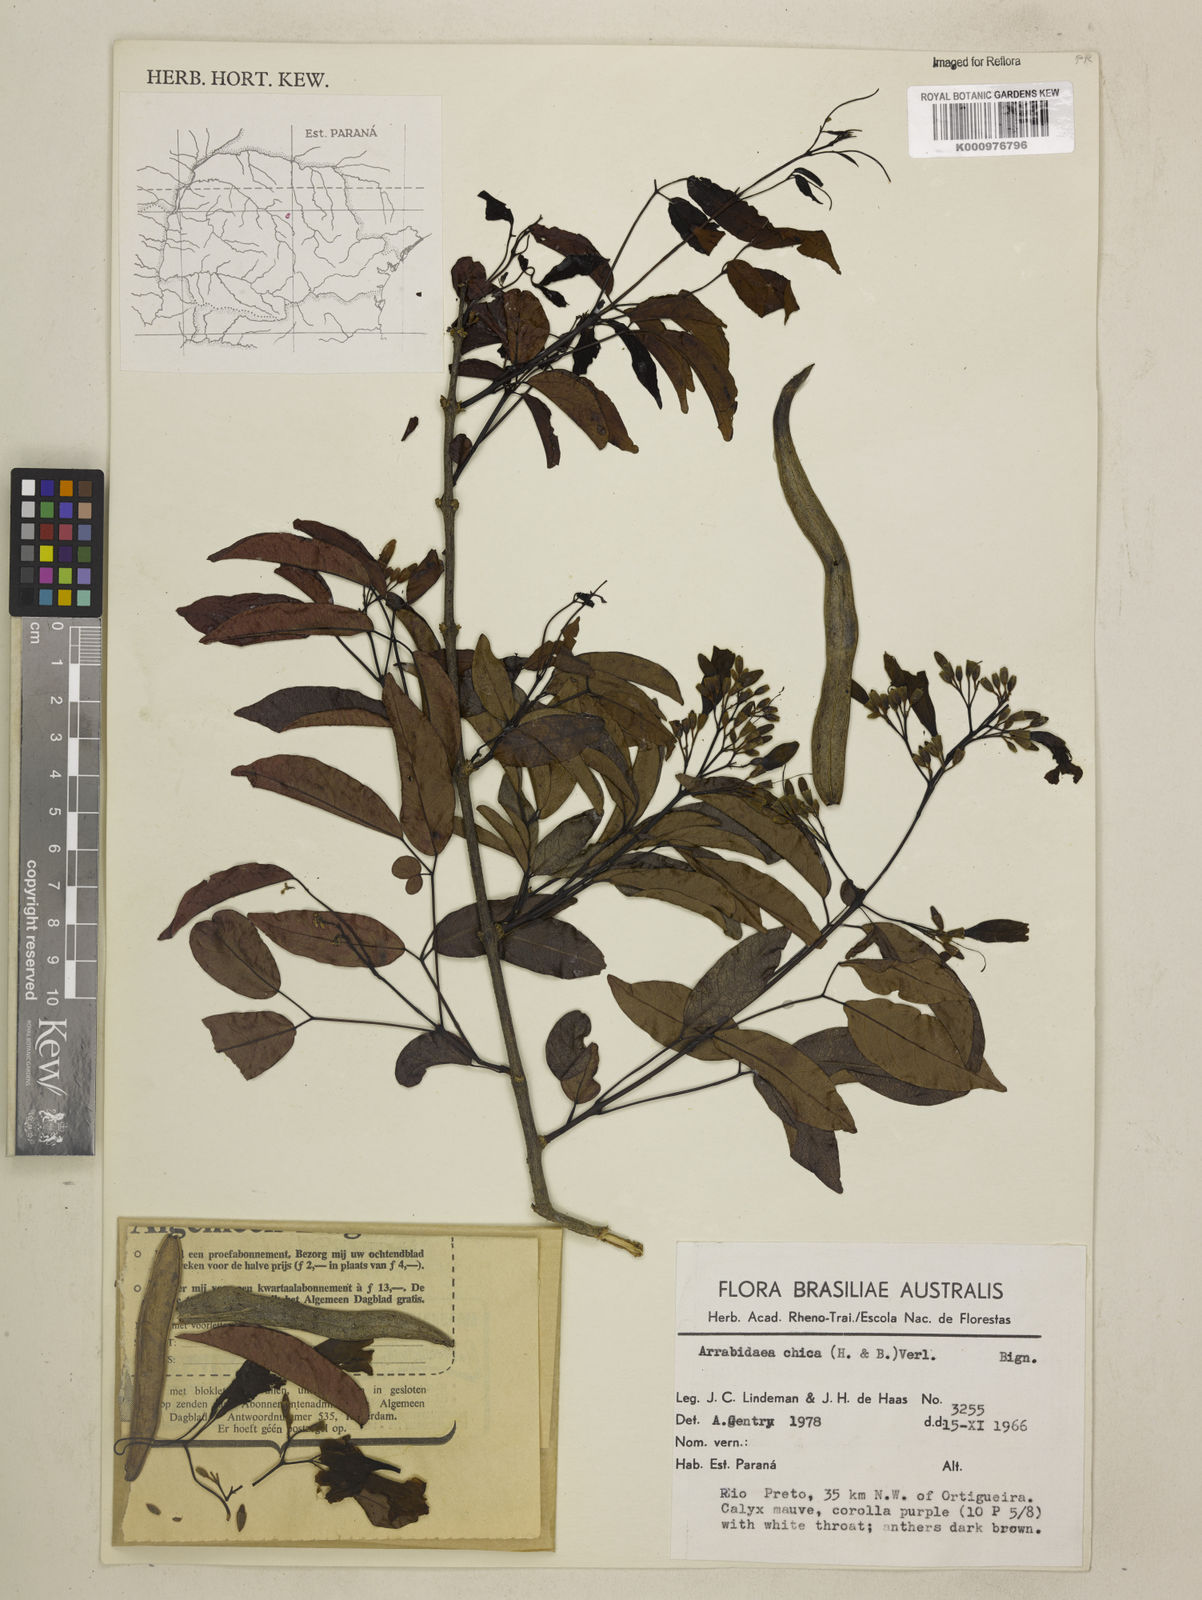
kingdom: Plantae
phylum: Tracheophyta
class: Magnoliopsida
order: Lamiales
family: Bignoniaceae
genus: Fridericia
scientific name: Fridericia chica
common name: Cricketvine
